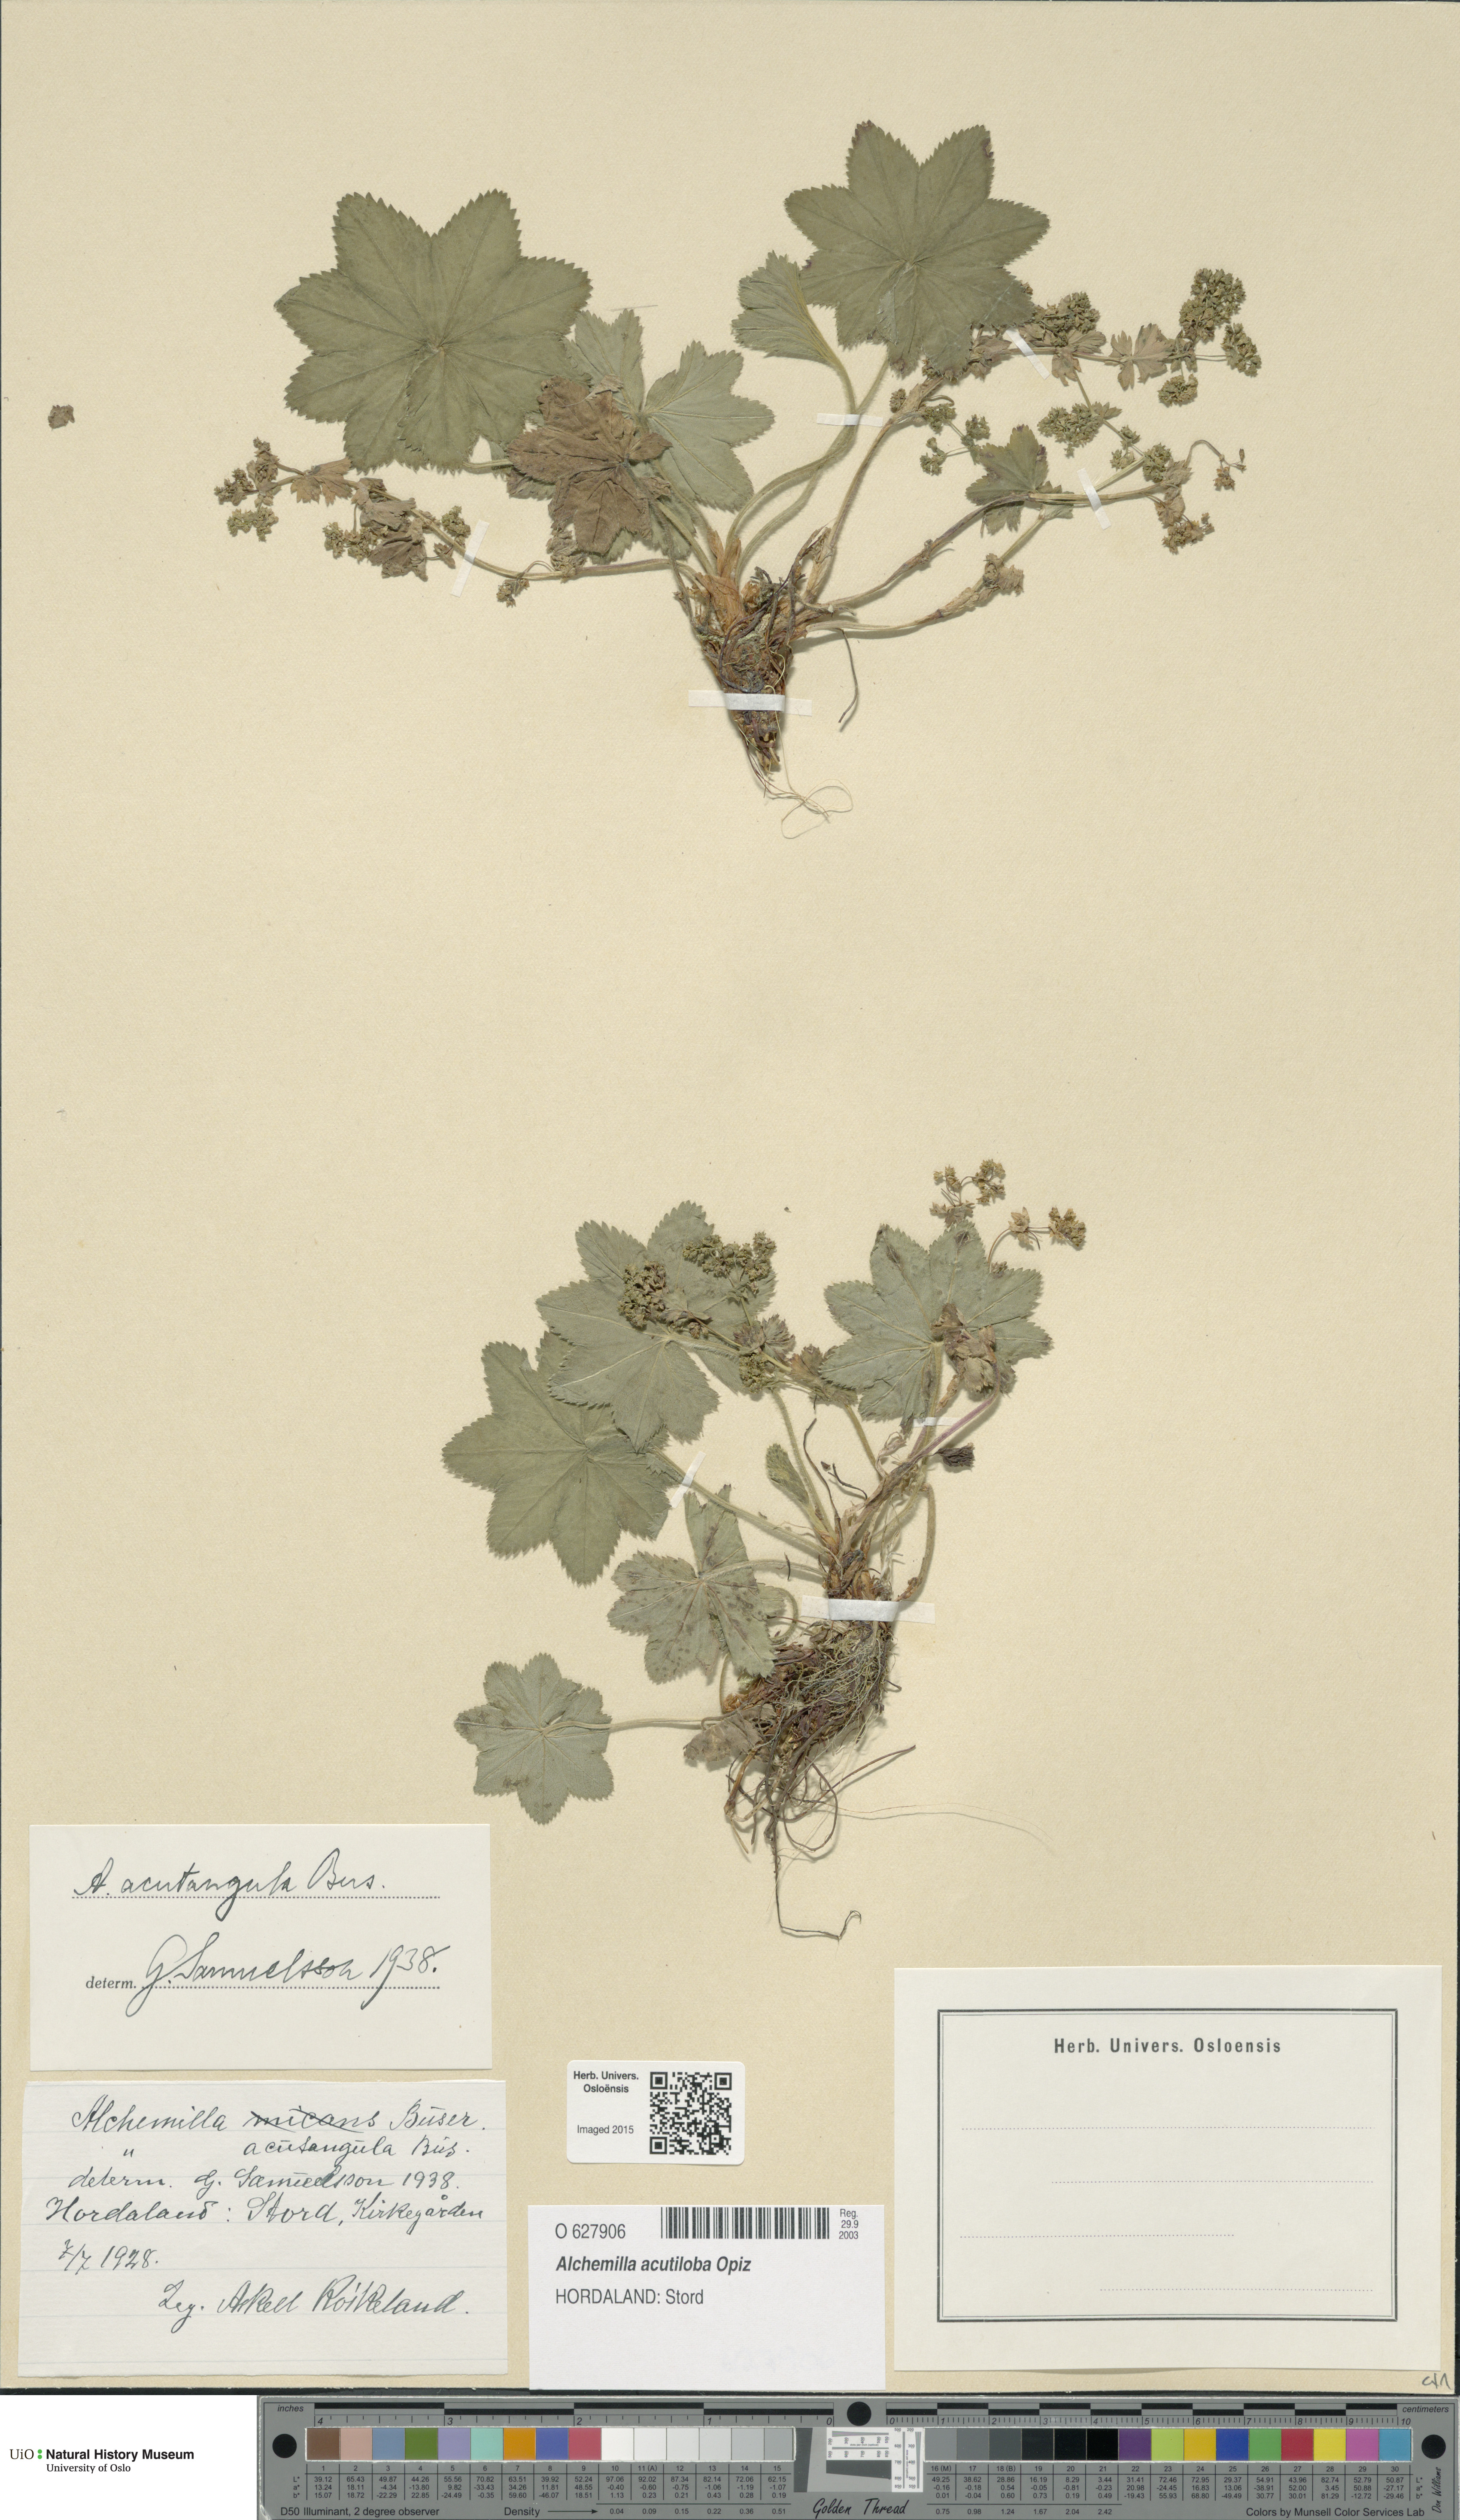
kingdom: Plantae
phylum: Tracheophyta
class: Magnoliopsida
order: Rosales
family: Rosaceae
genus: Alchemilla
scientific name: Alchemilla vulgaris
